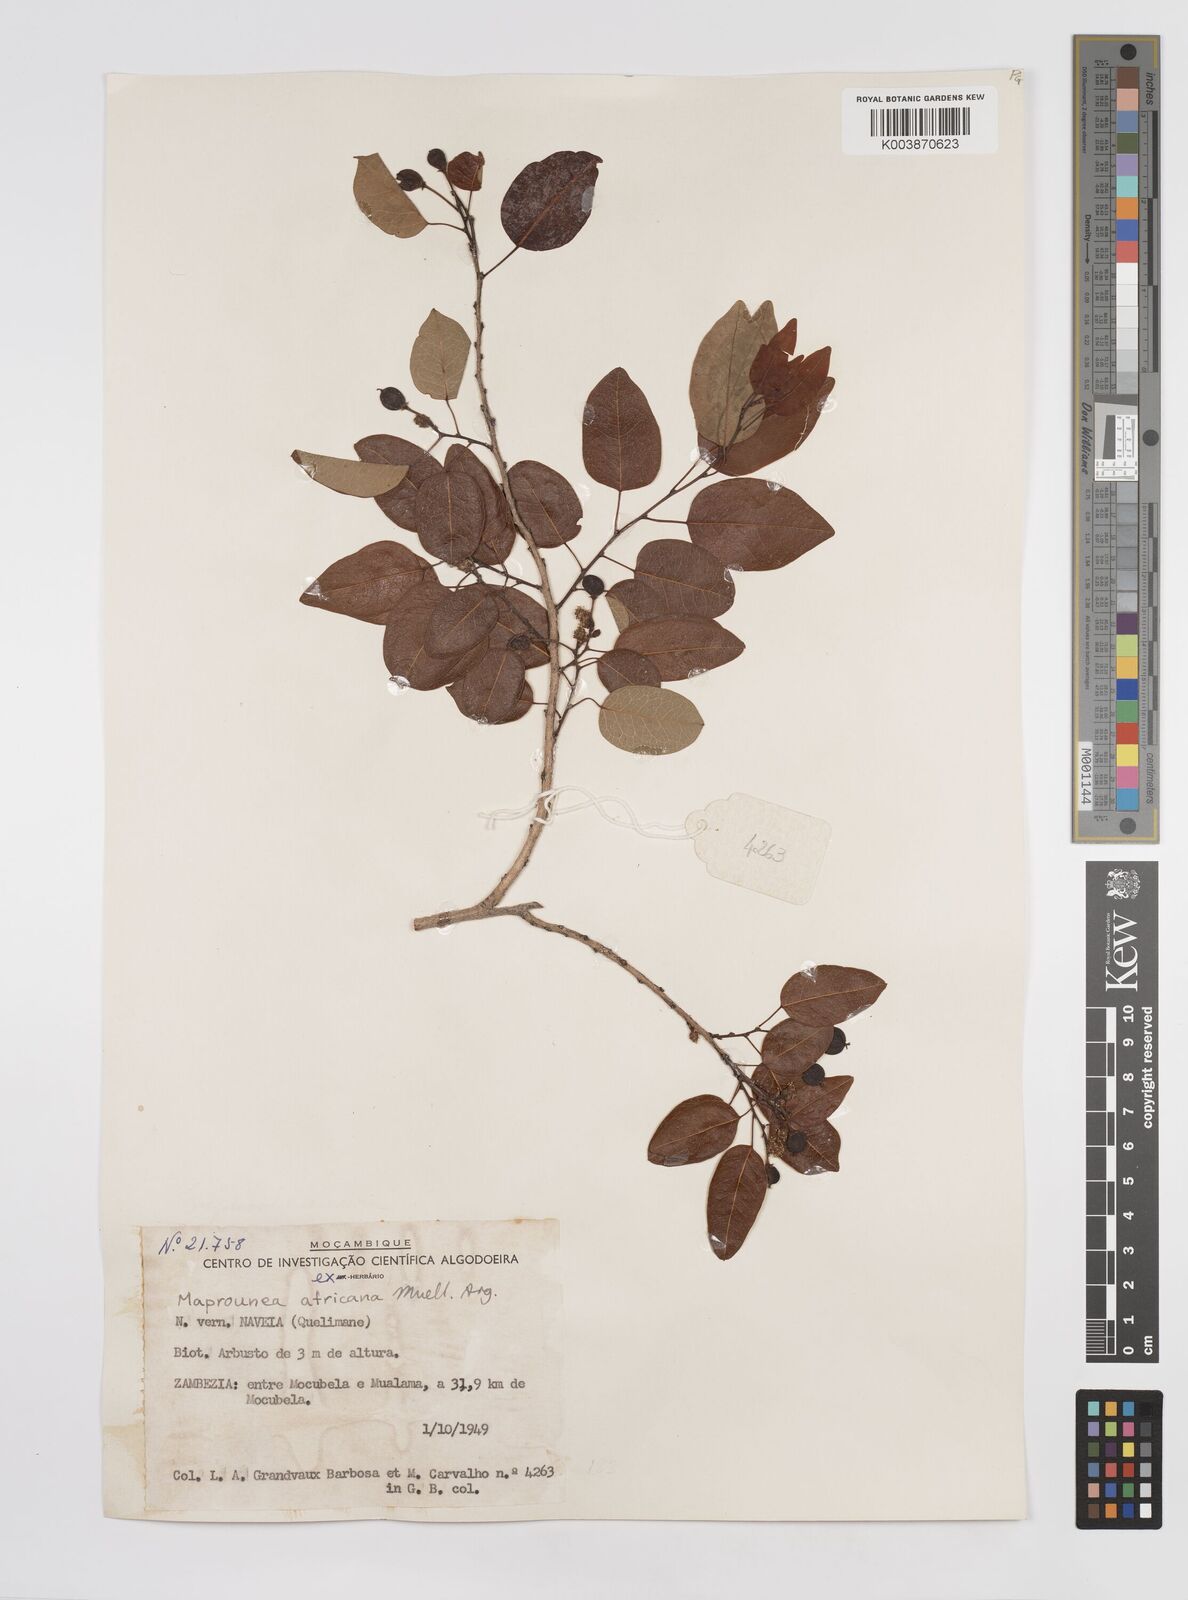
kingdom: Plantae
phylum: Tracheophyta
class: Magnoliopsida
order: Malpighiales
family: Euphorbiaceae
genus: Maprounea
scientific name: Maprounea africana
